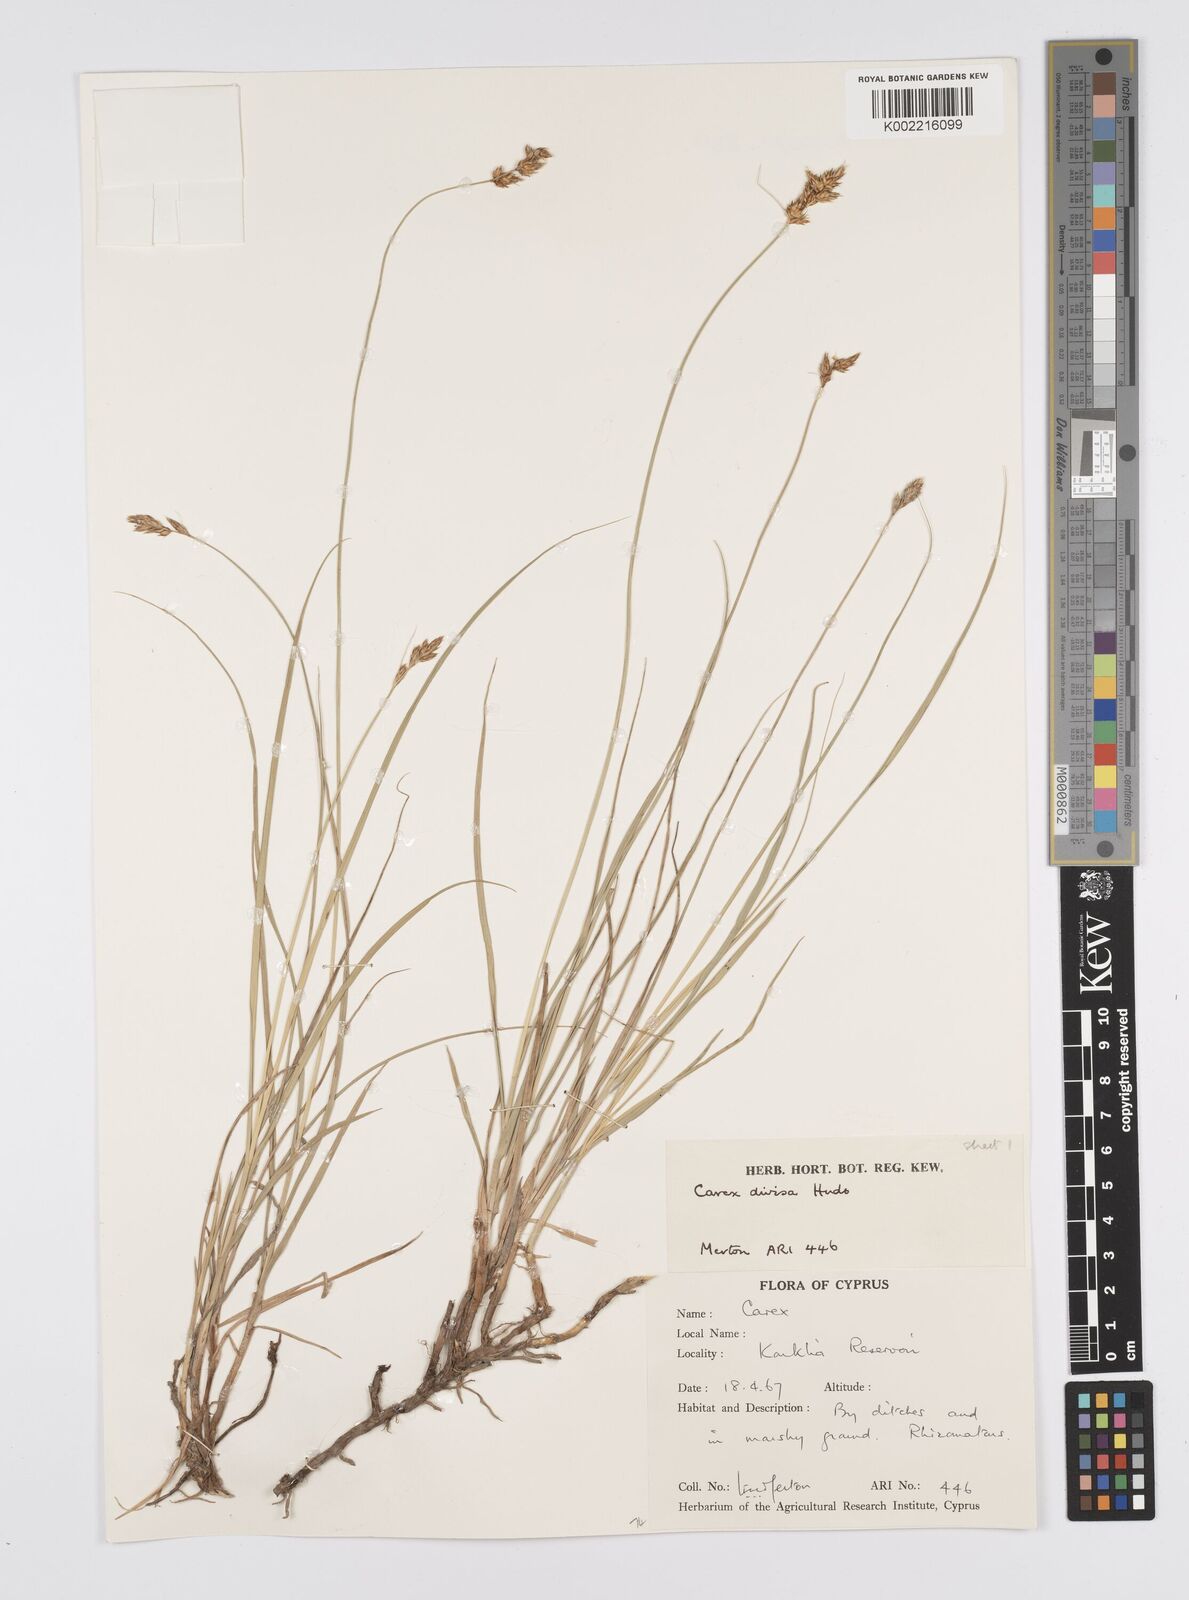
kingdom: Plantae
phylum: Tracheophyta
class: Liliopsida
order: Poales
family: Cyperaceae
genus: Carex
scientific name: Carex divisa
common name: Divided sedge
